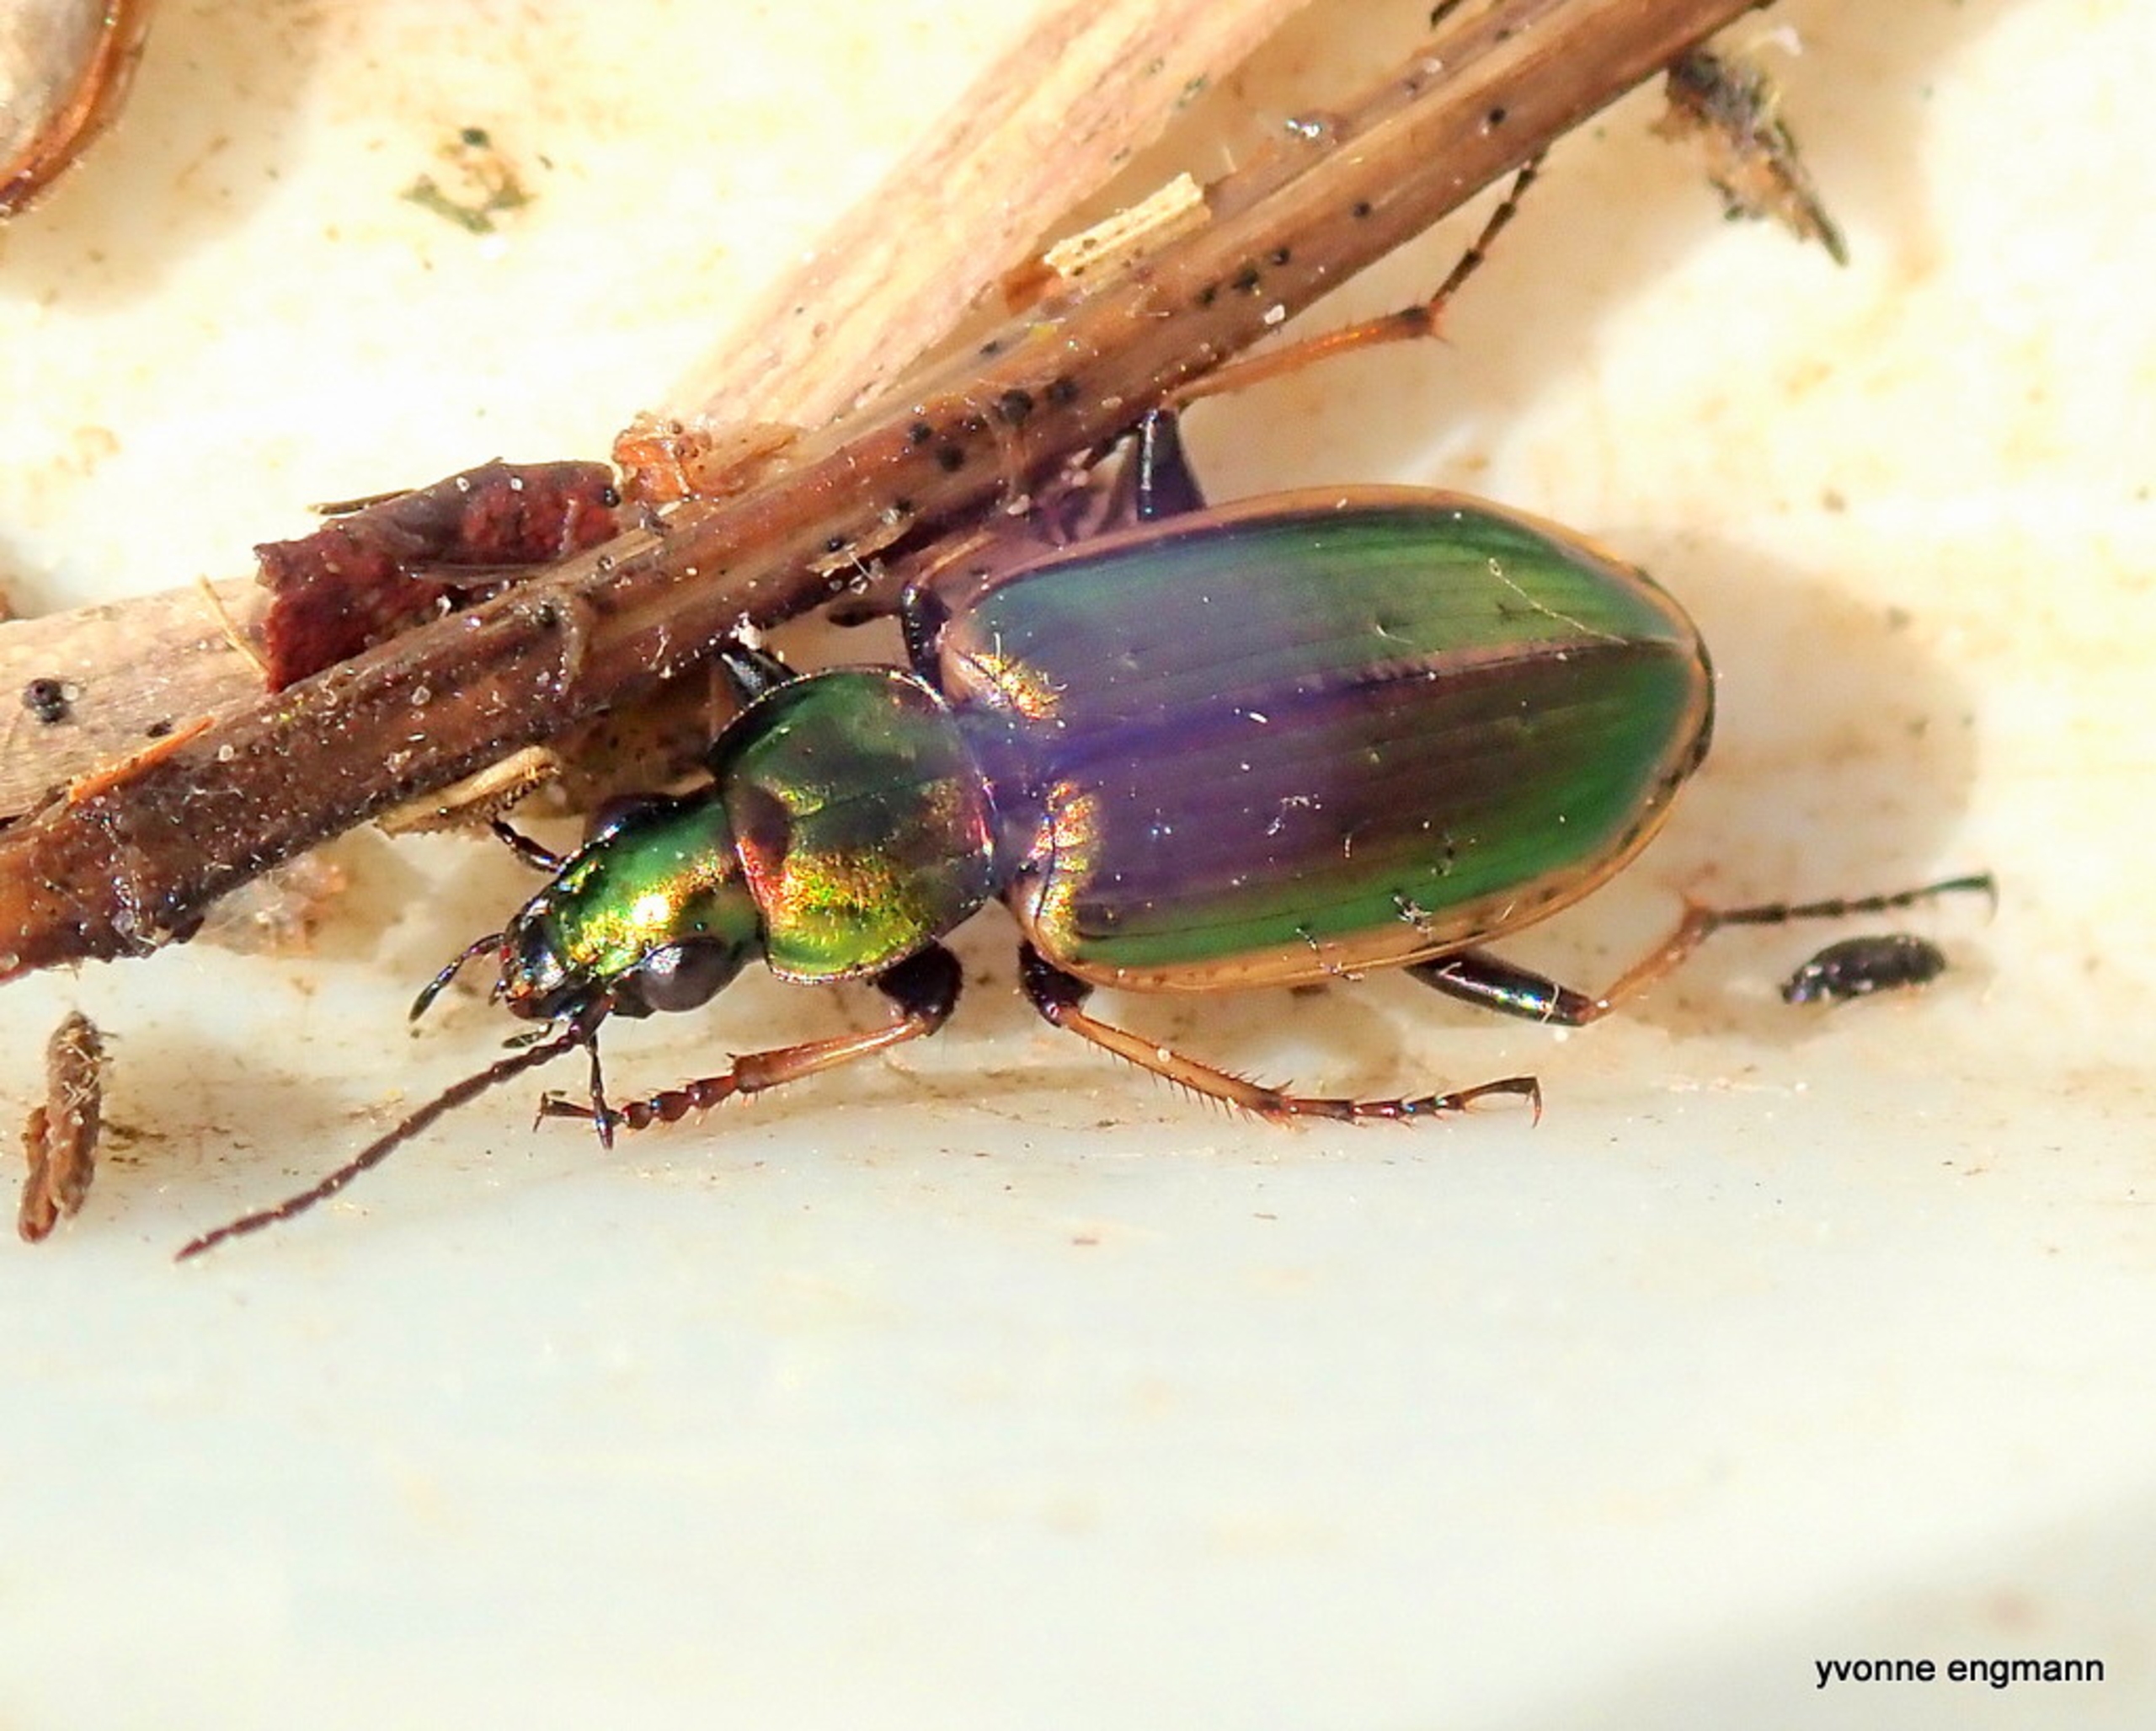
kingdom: Animalia
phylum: Arthropoda
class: Insecta
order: Coleoptera
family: Carabidae
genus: Agonum
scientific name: Agonum marginatum
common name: Gulrandet kvikløber
